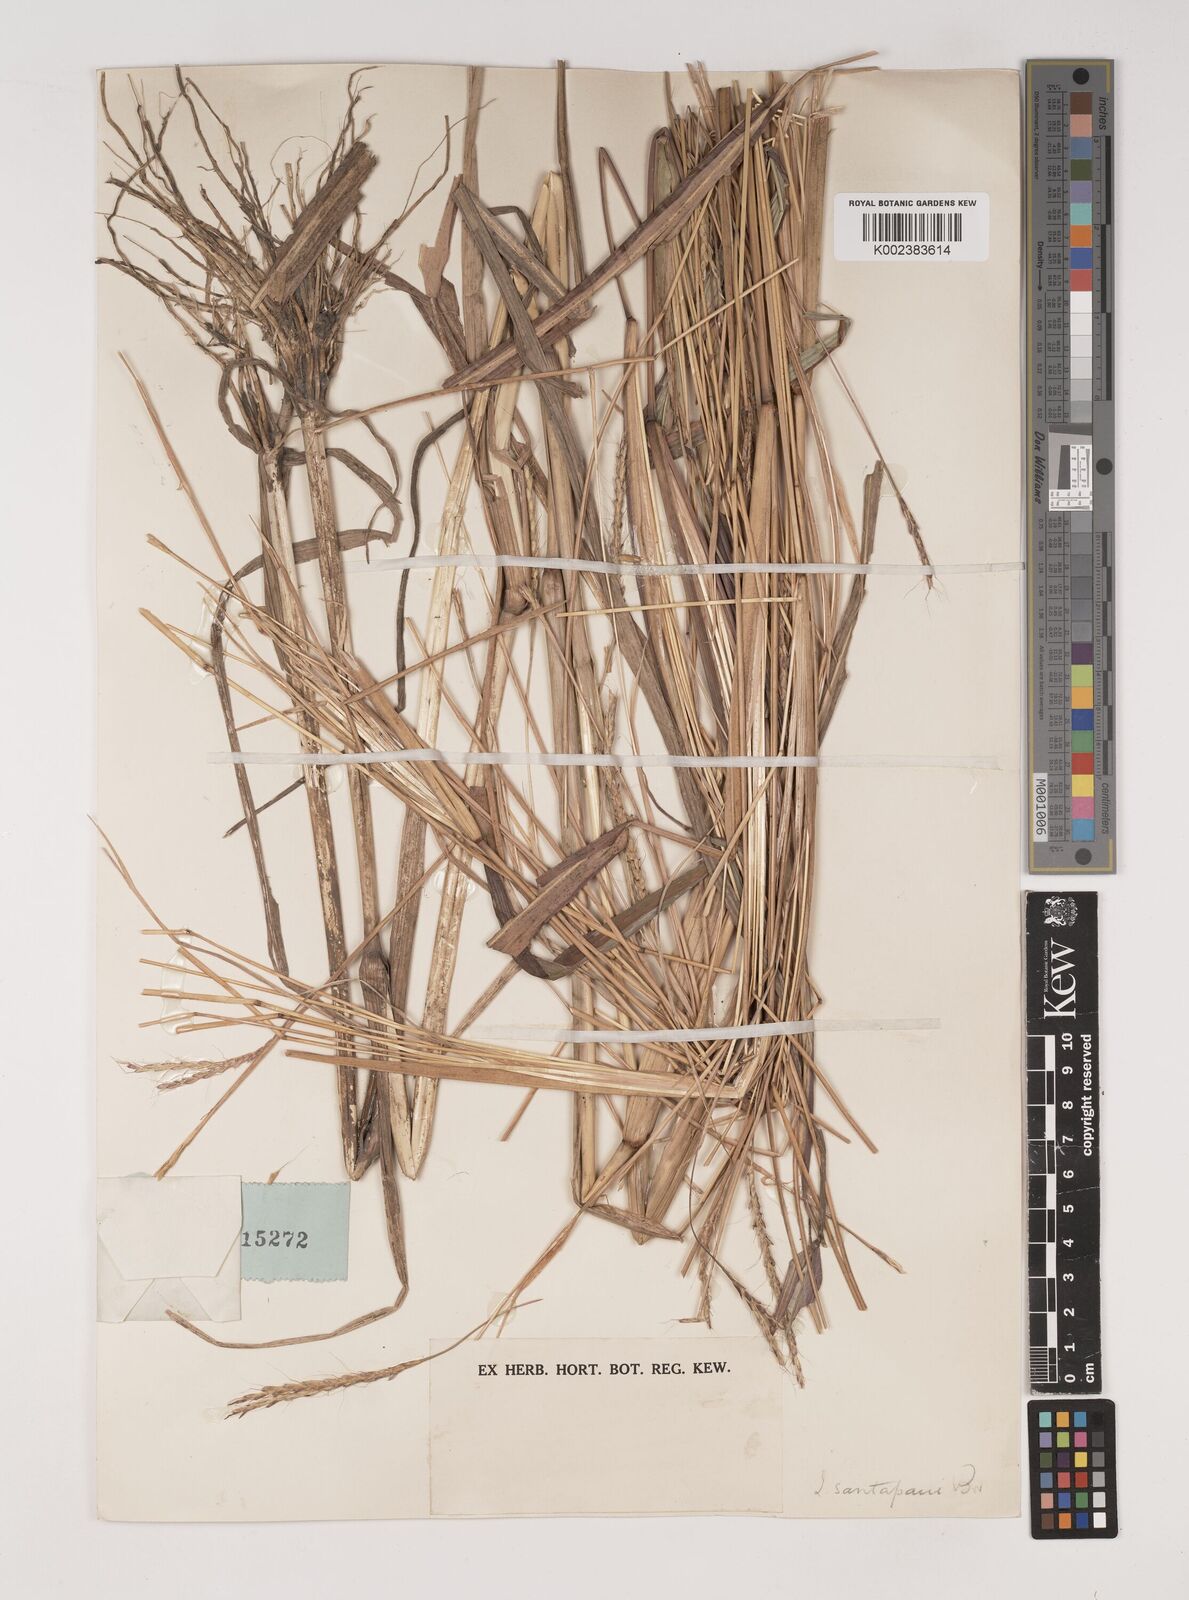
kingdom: Plantae
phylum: Tracheophyta
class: Liliopsida
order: Poales
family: Poaceae
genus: Ischaemum
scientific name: Ischaemum santapaui
